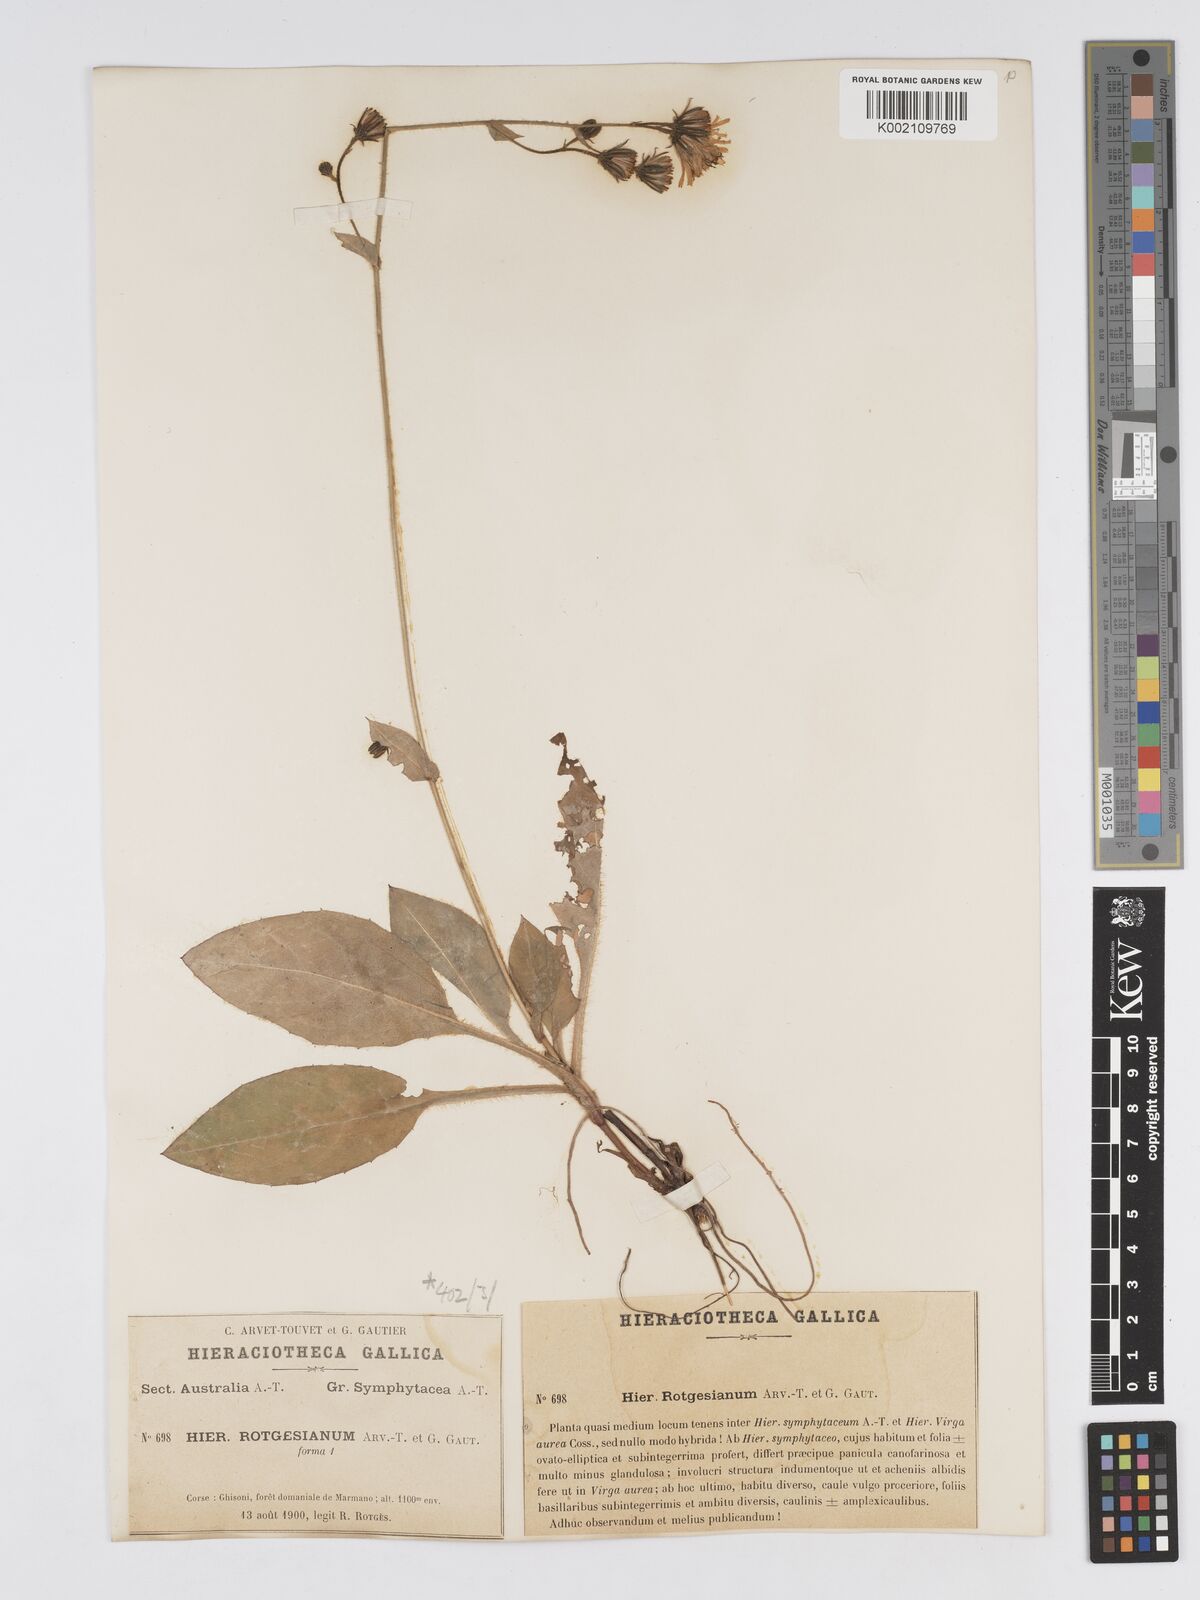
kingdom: Plantae
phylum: Tracheophyta
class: Magnoliopsida
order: Asterales
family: Asteraceae
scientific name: Asteraceae
